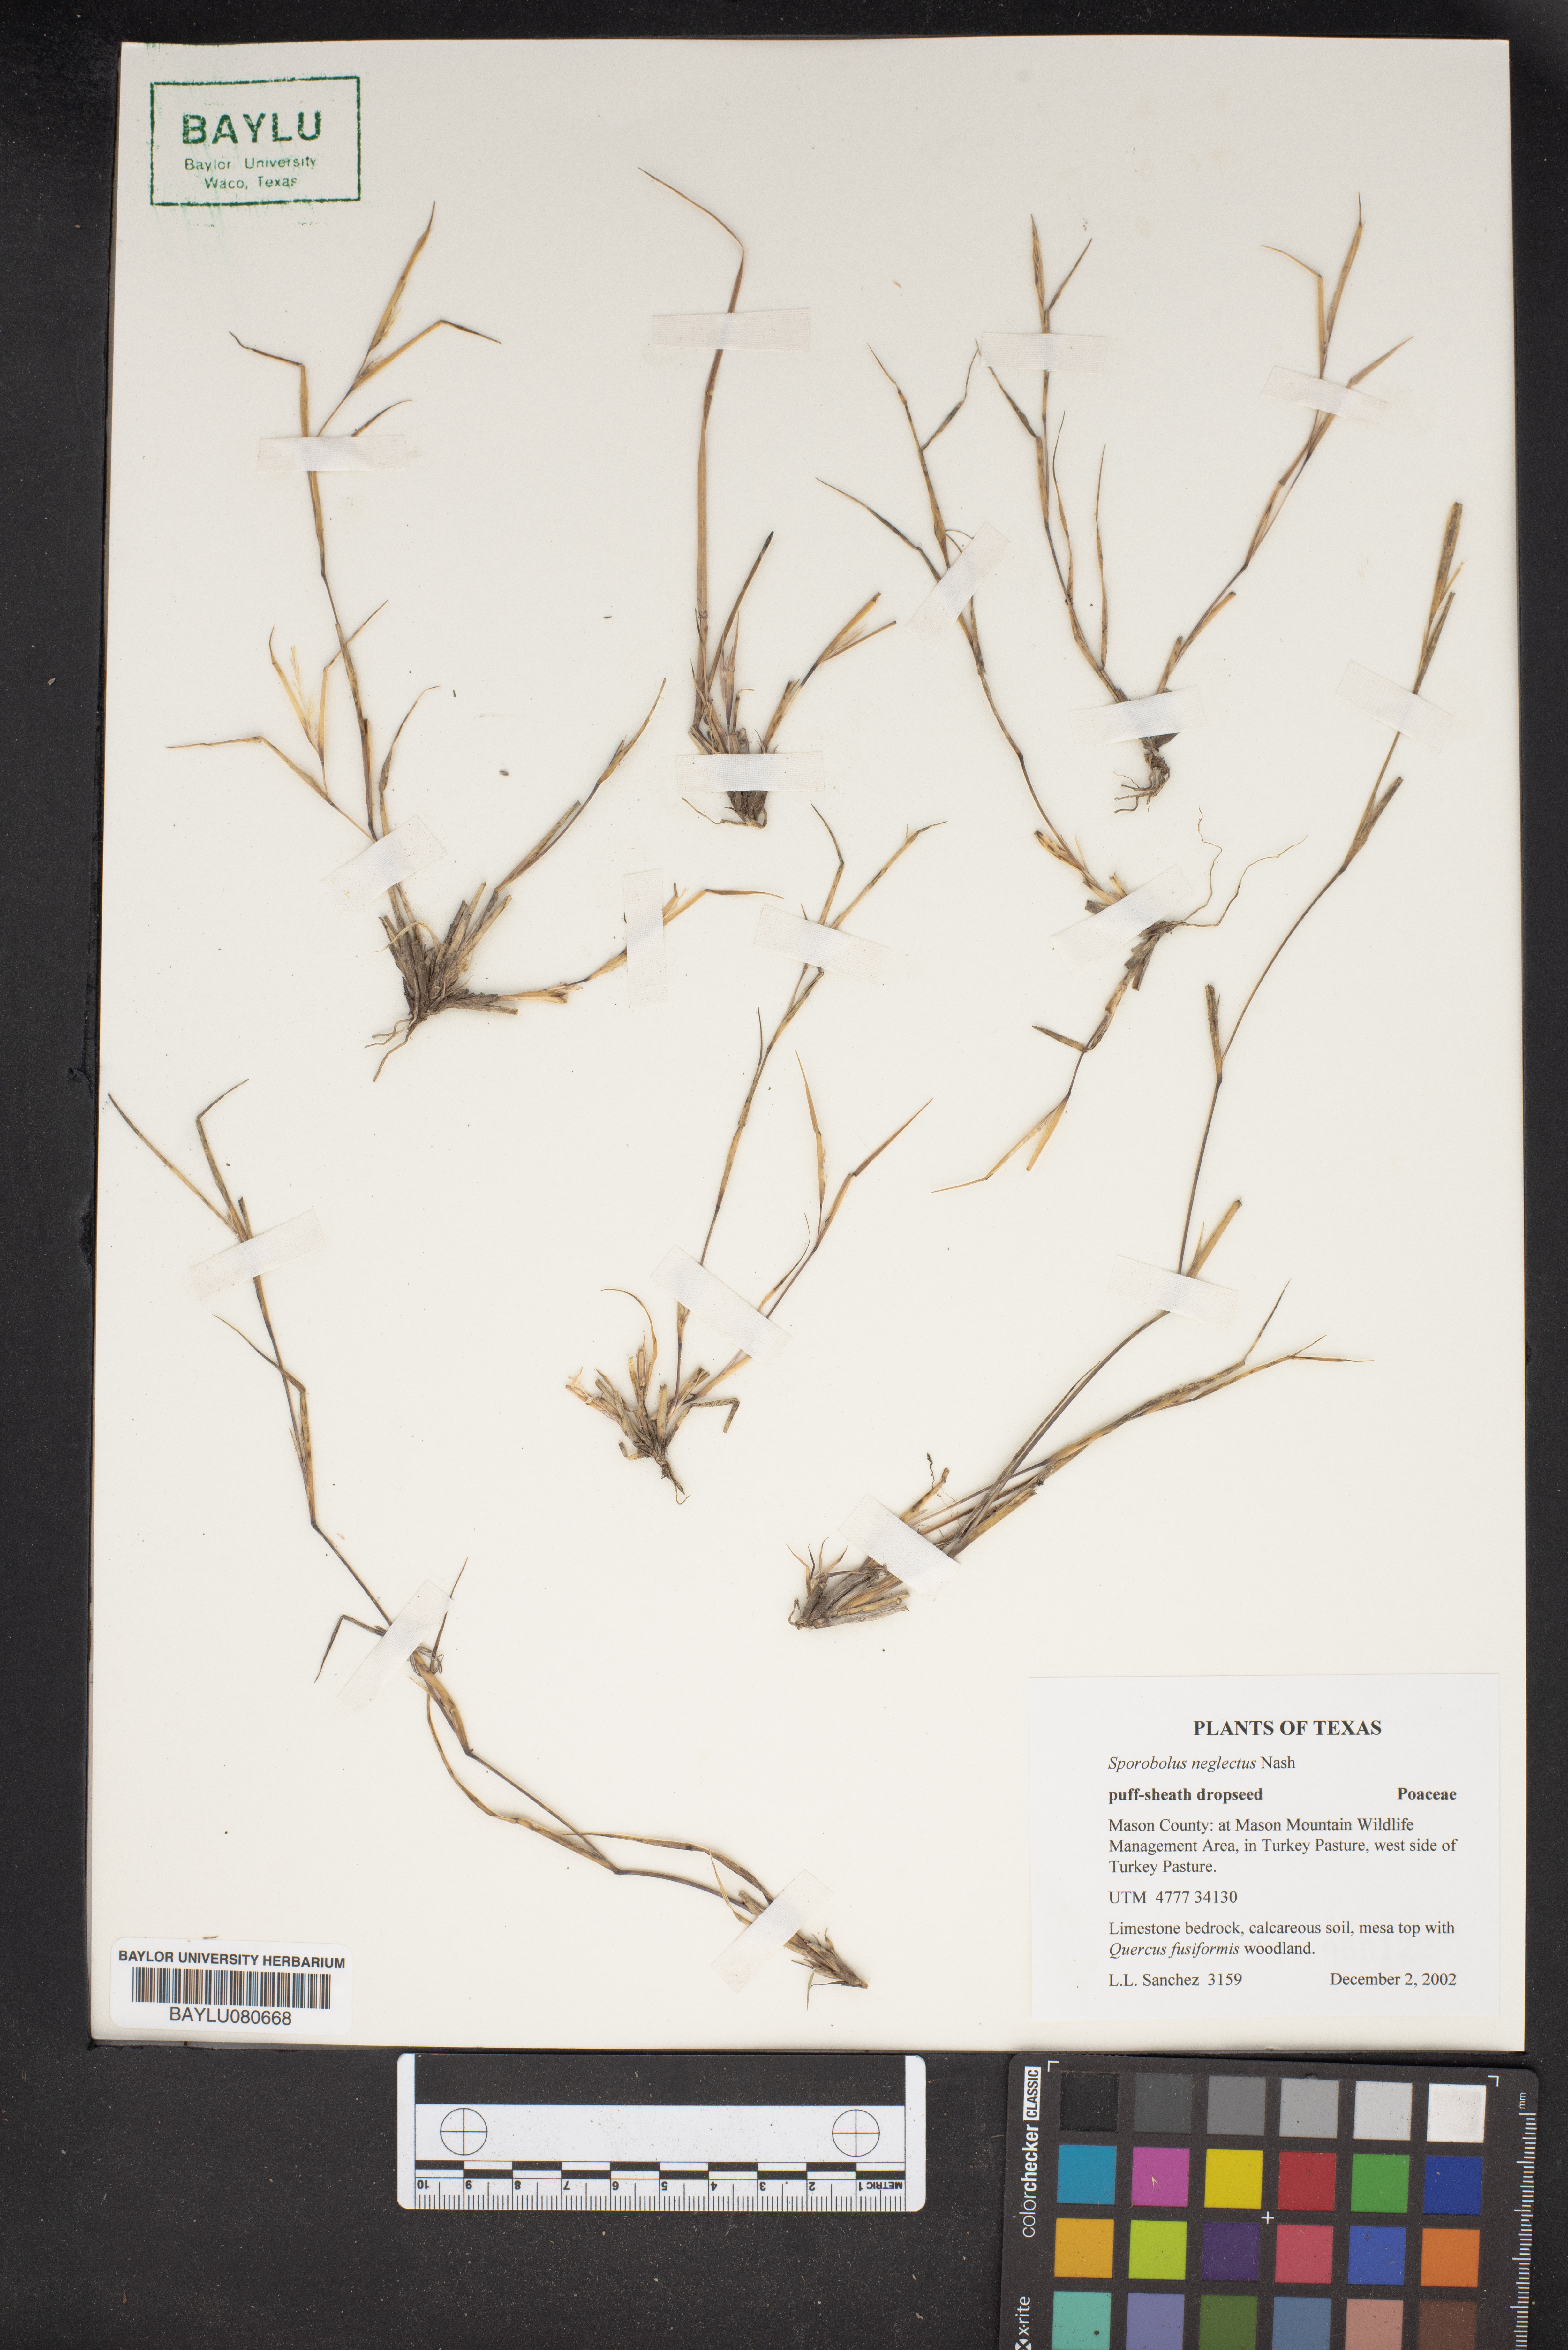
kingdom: Plantae
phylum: Tracheophyta
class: Liliopsida
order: Poales
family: Poaceae
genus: Sporobolus
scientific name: Sporobolus neglectus
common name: Annual dropseed
